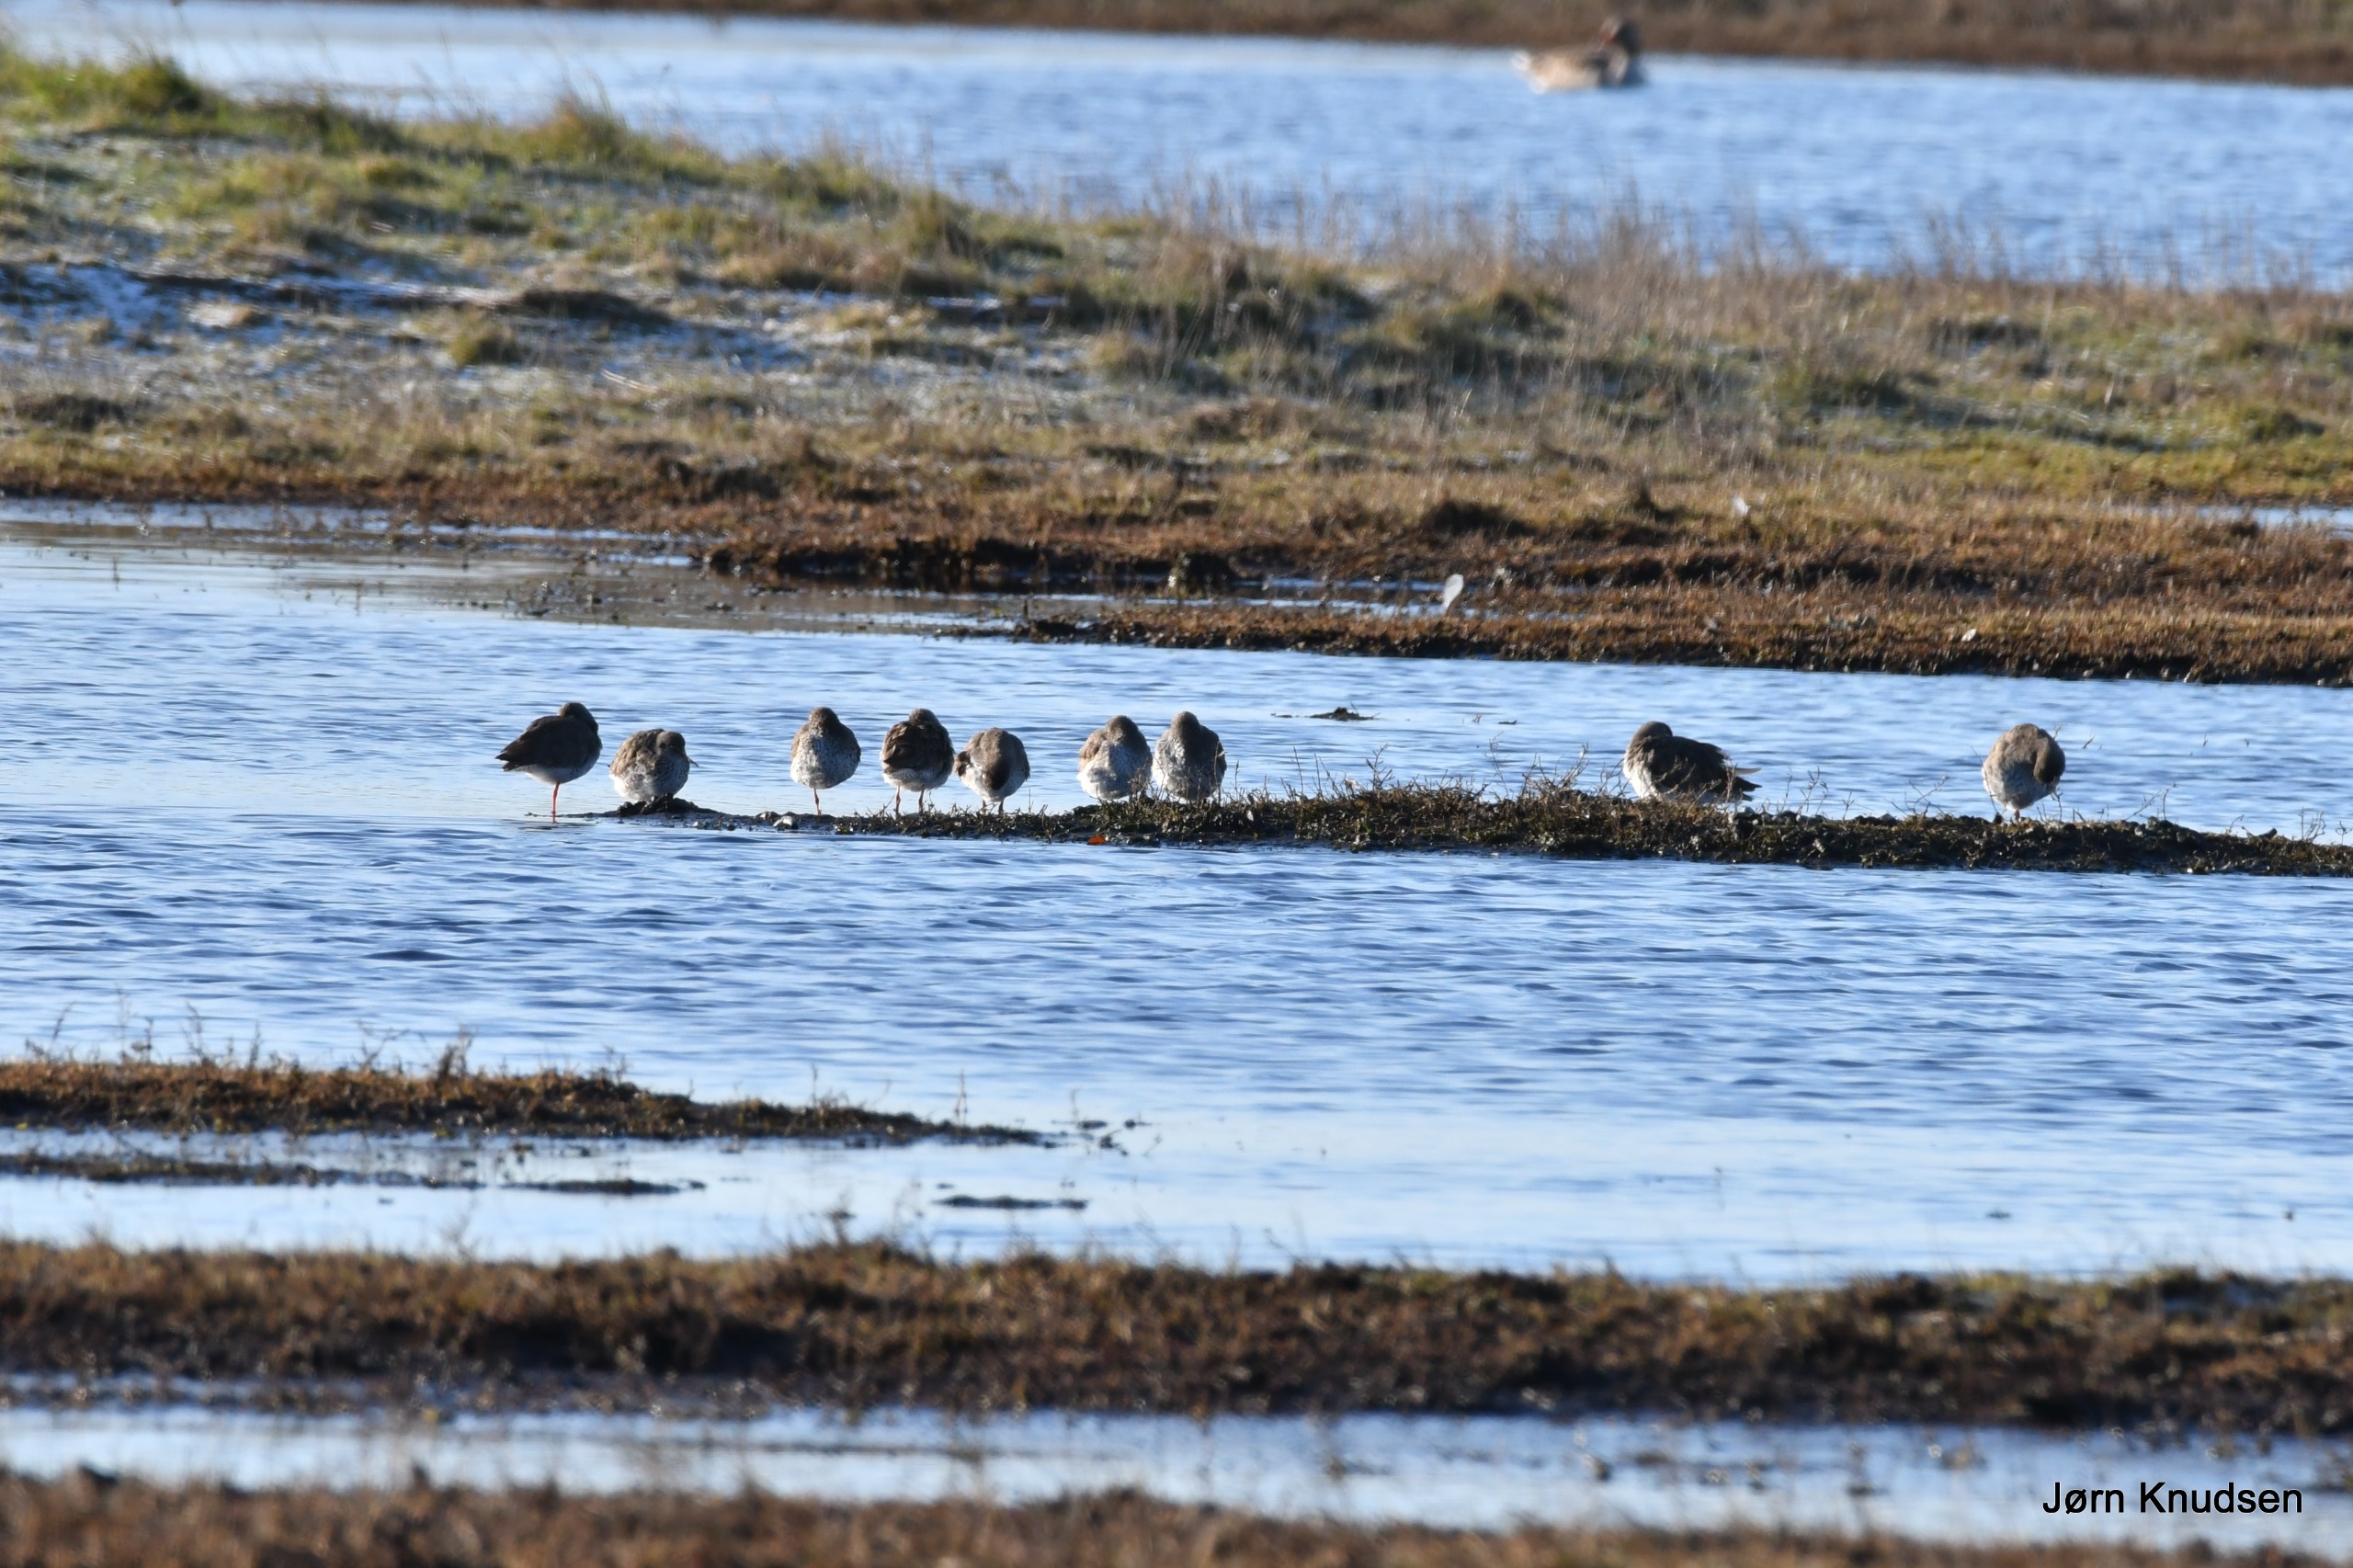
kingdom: Animalia
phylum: Chordata
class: Aves
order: Charadriiformes
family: Scolopacidae
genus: Tringa
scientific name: Tringa totanus
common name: Rødben
